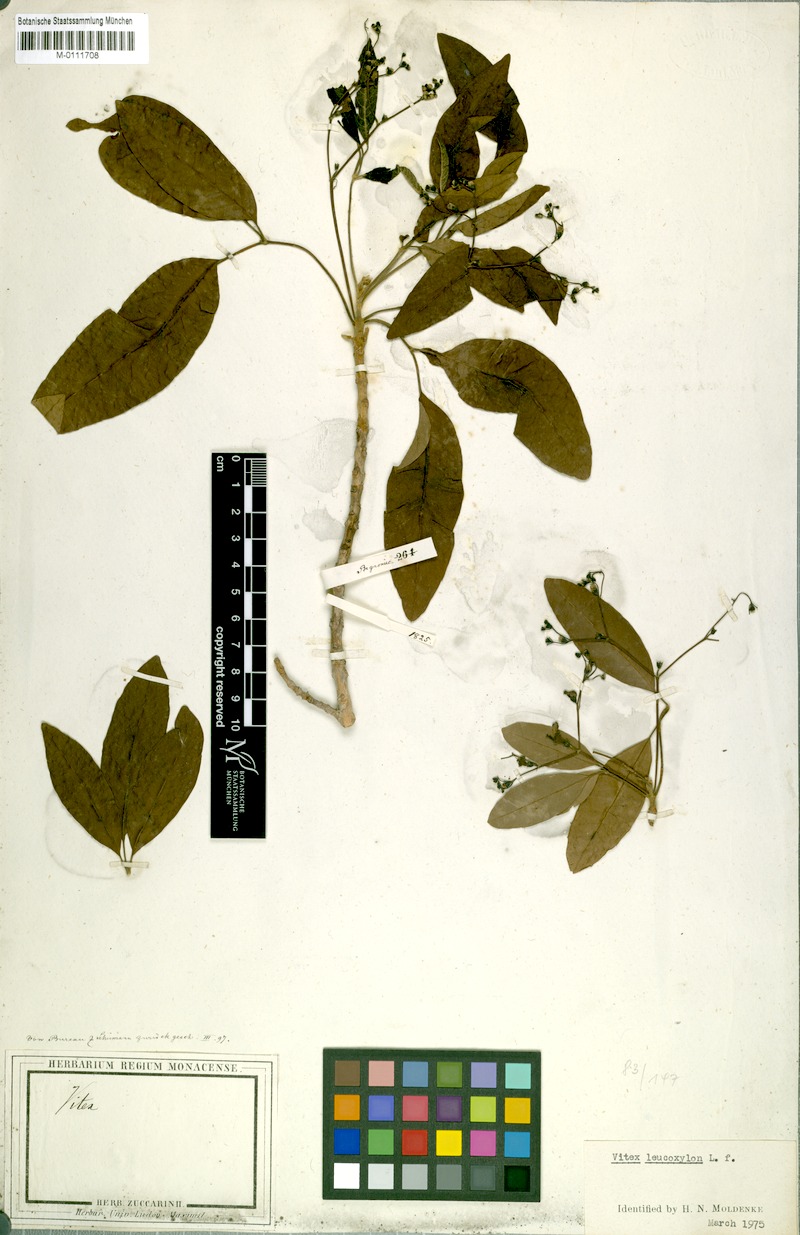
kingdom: Plantae
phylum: Tracheophyta
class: Magnoliopsida
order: Lamiales
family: Lamiaceae
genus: Vitex
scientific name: Vitex leucoxylon
